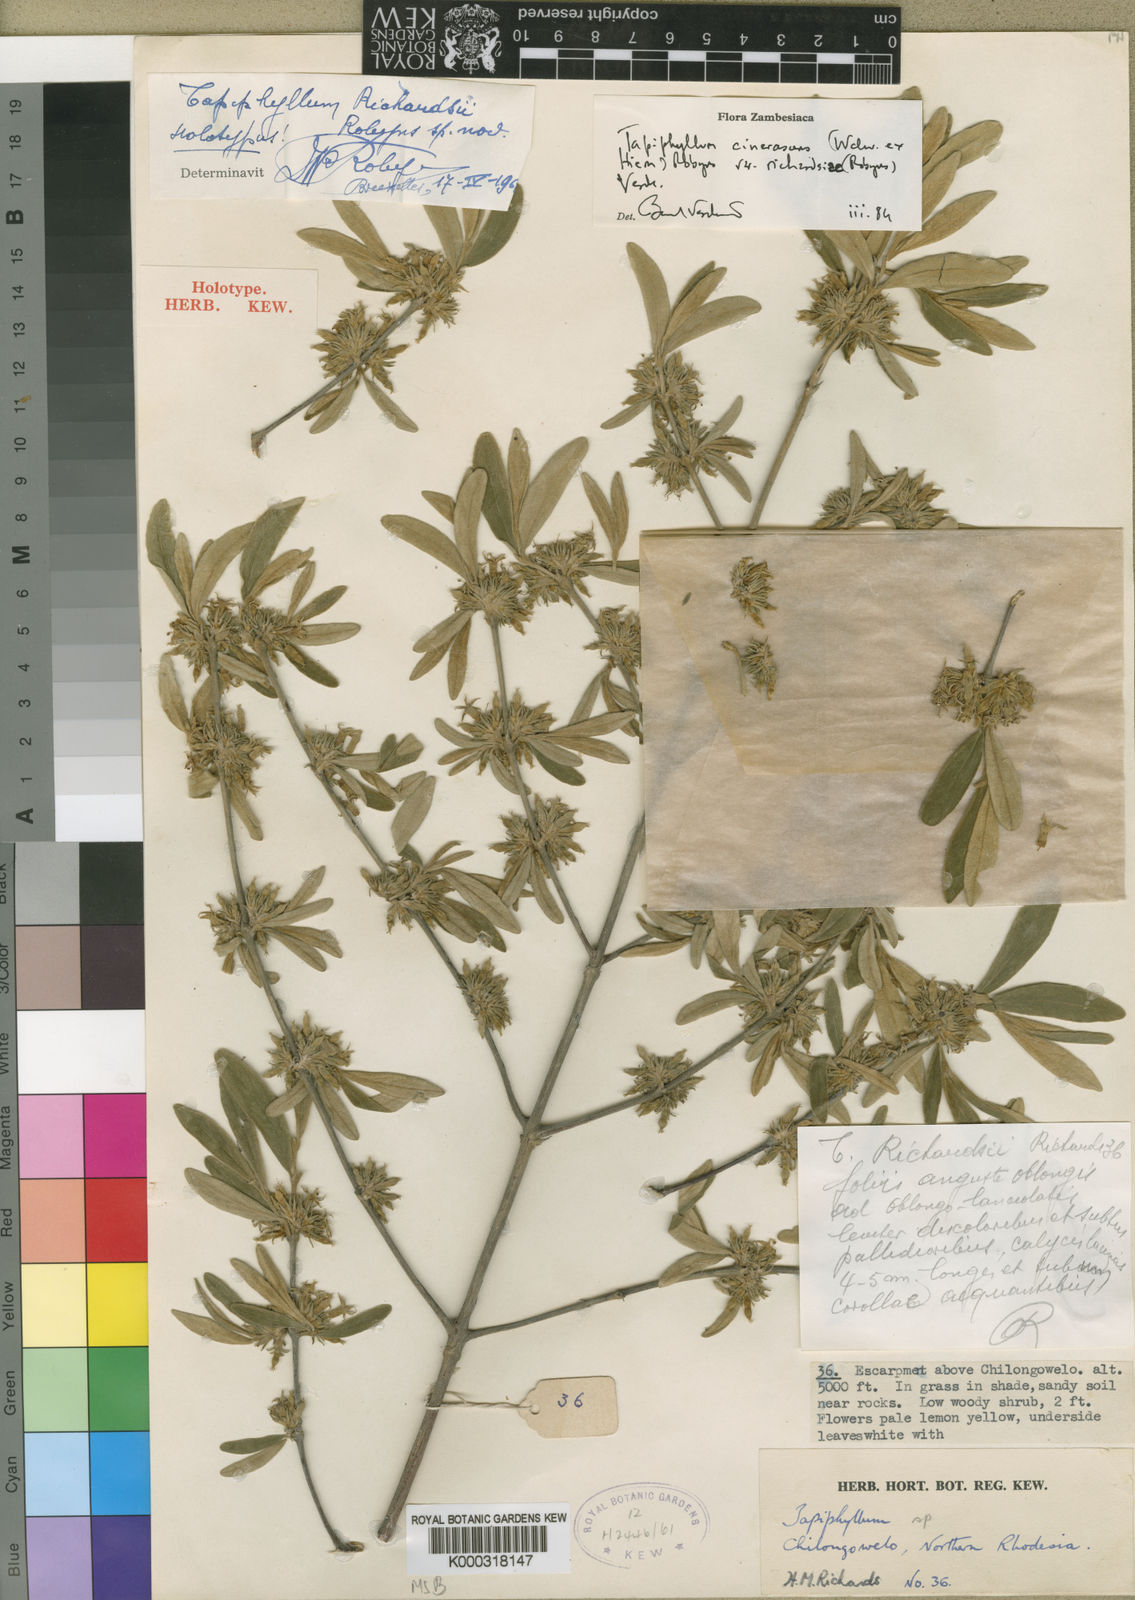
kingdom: Plantae
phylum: Tracheophyta
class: Magnoliopsida
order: Gentianales
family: Rubiaceae
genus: Vangueria
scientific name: Vangueria cinerascens
